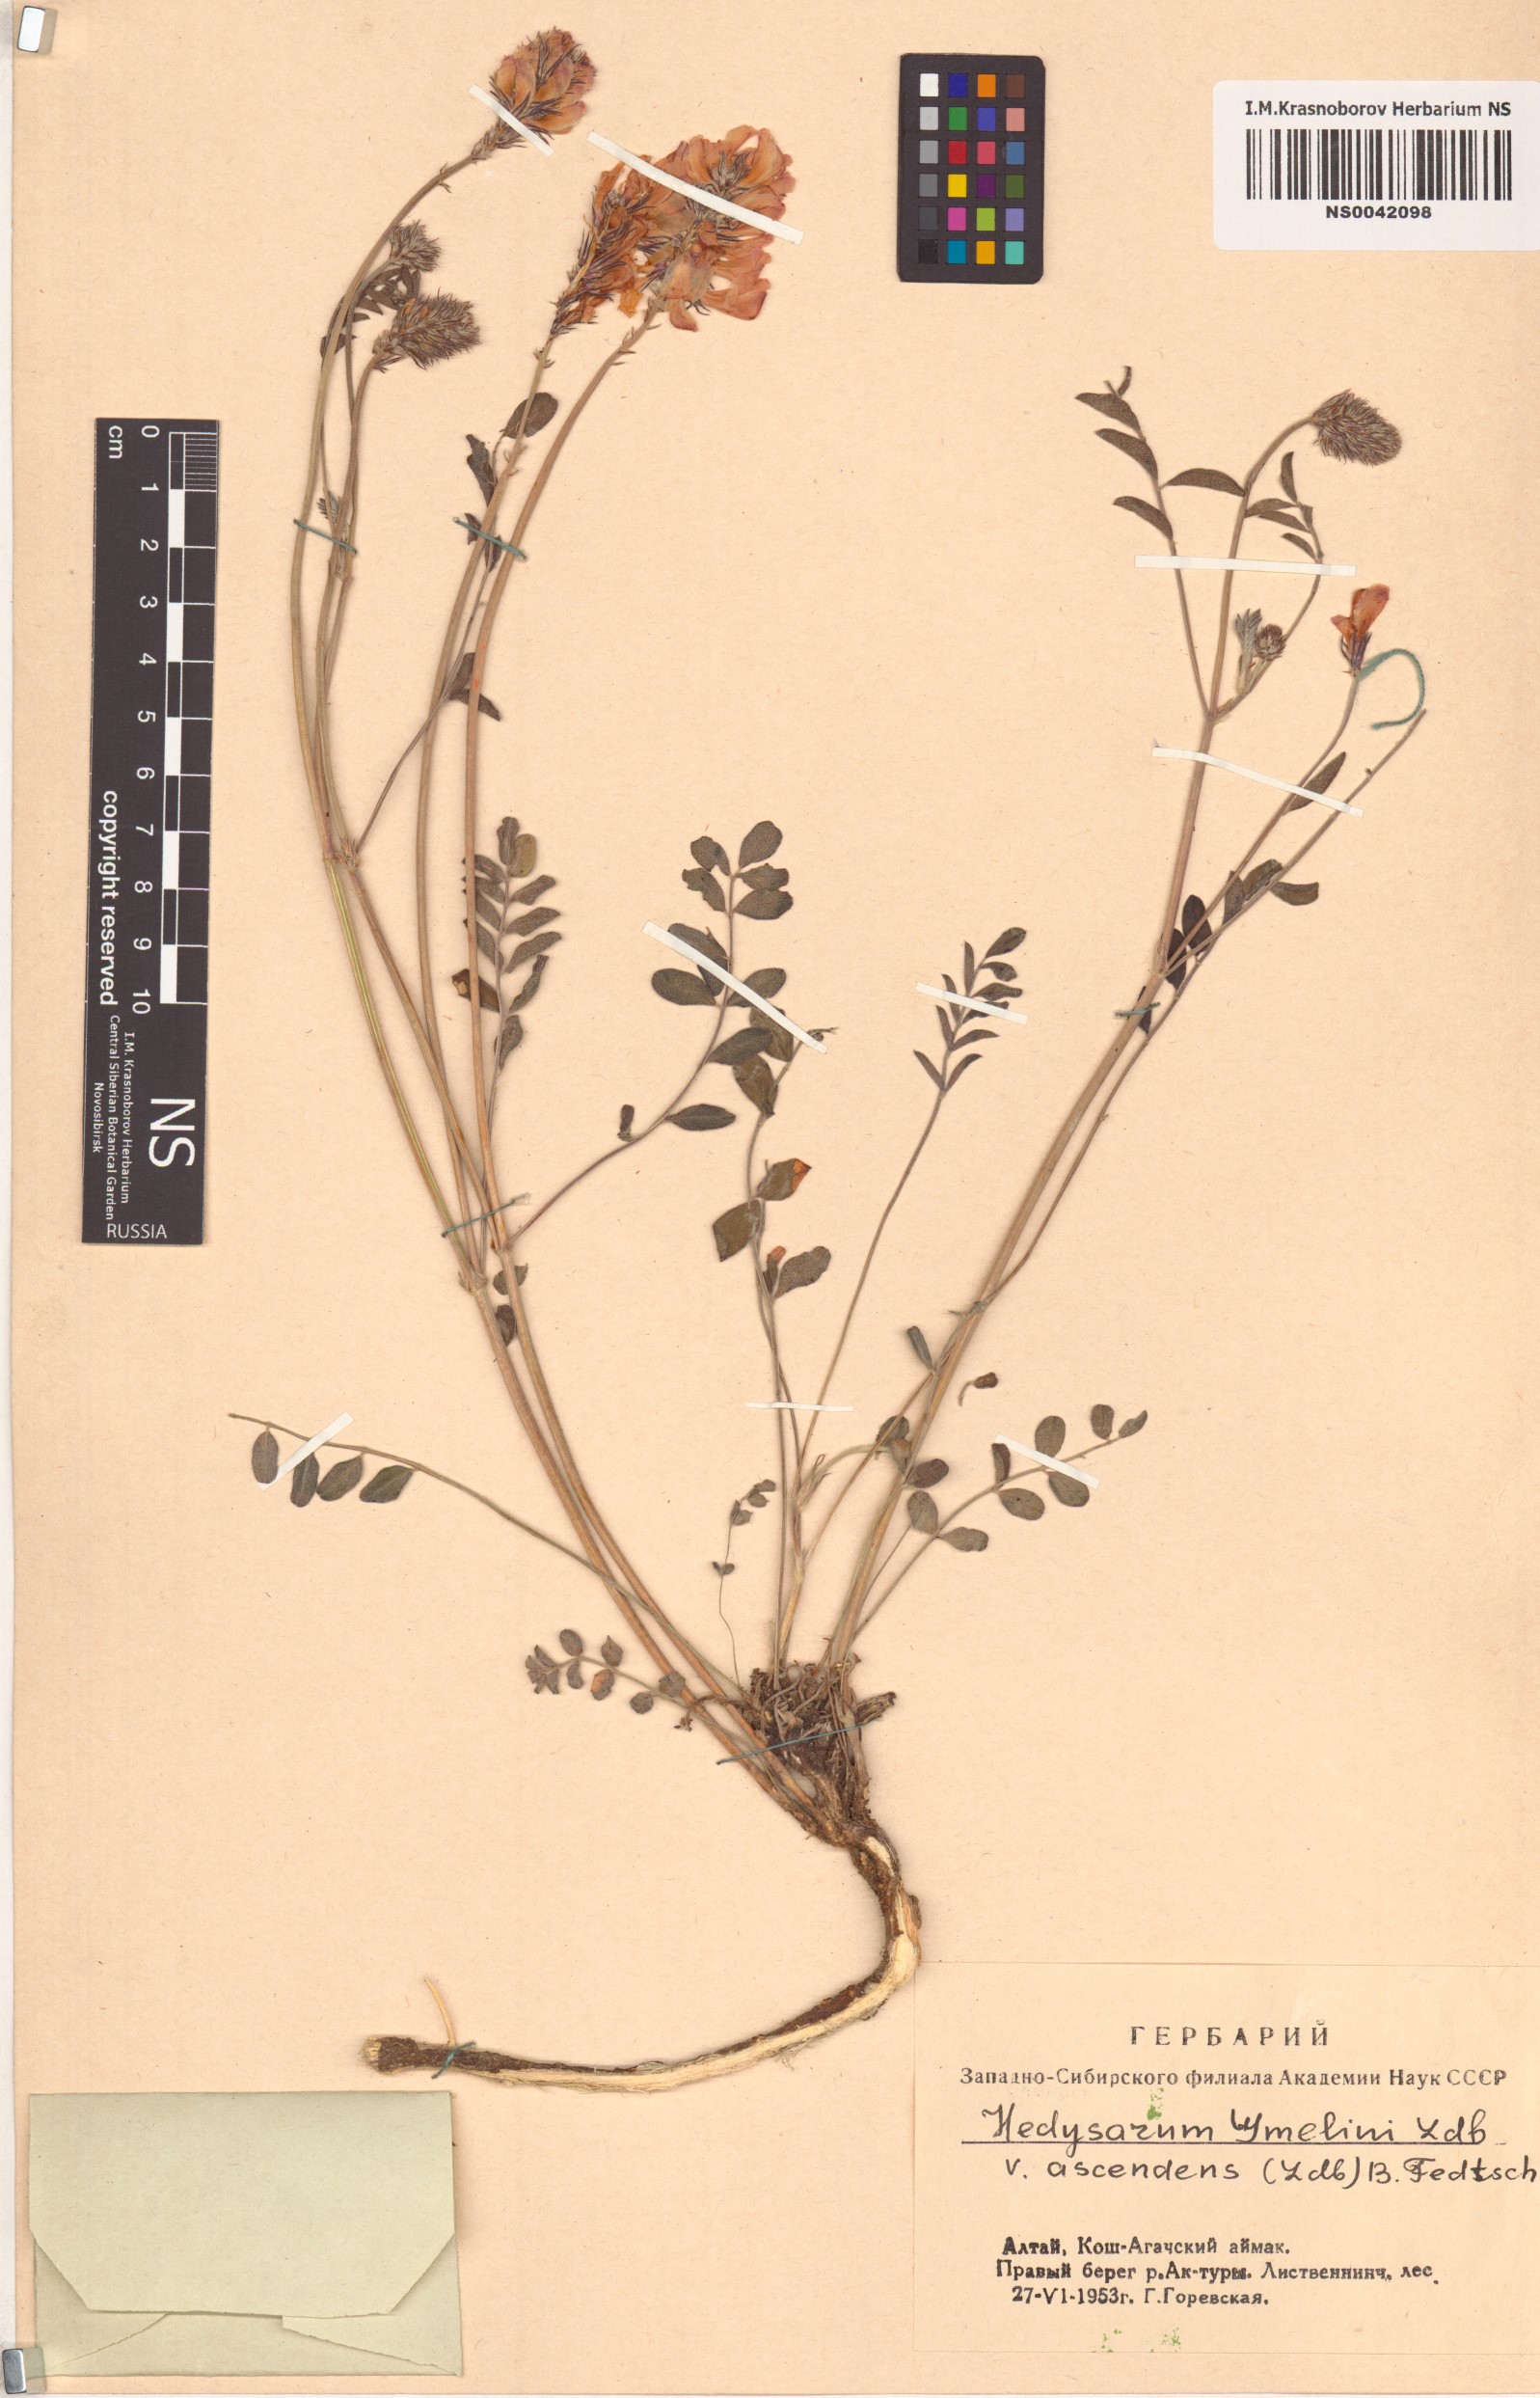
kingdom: Plantae
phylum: Tracheophyta
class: Magnoliopsida
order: Fabales
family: Fabaceae
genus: Hedysarum
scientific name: Hedysarum gmelinii
